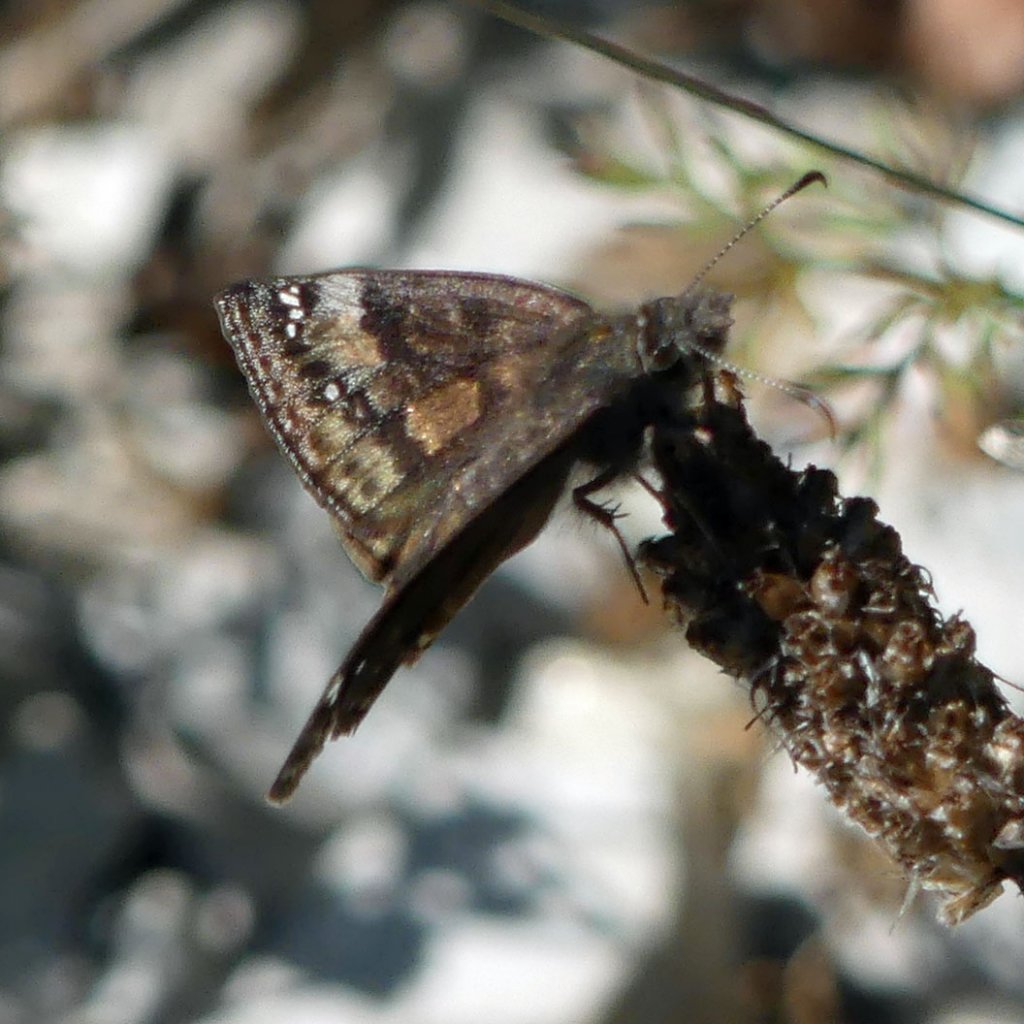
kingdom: Animalia
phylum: Arthropoda
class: Insecta
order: Lepidoptera
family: Hesperiidae
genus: Gesta
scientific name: Gesta
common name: Wild Indigo Duskywing
